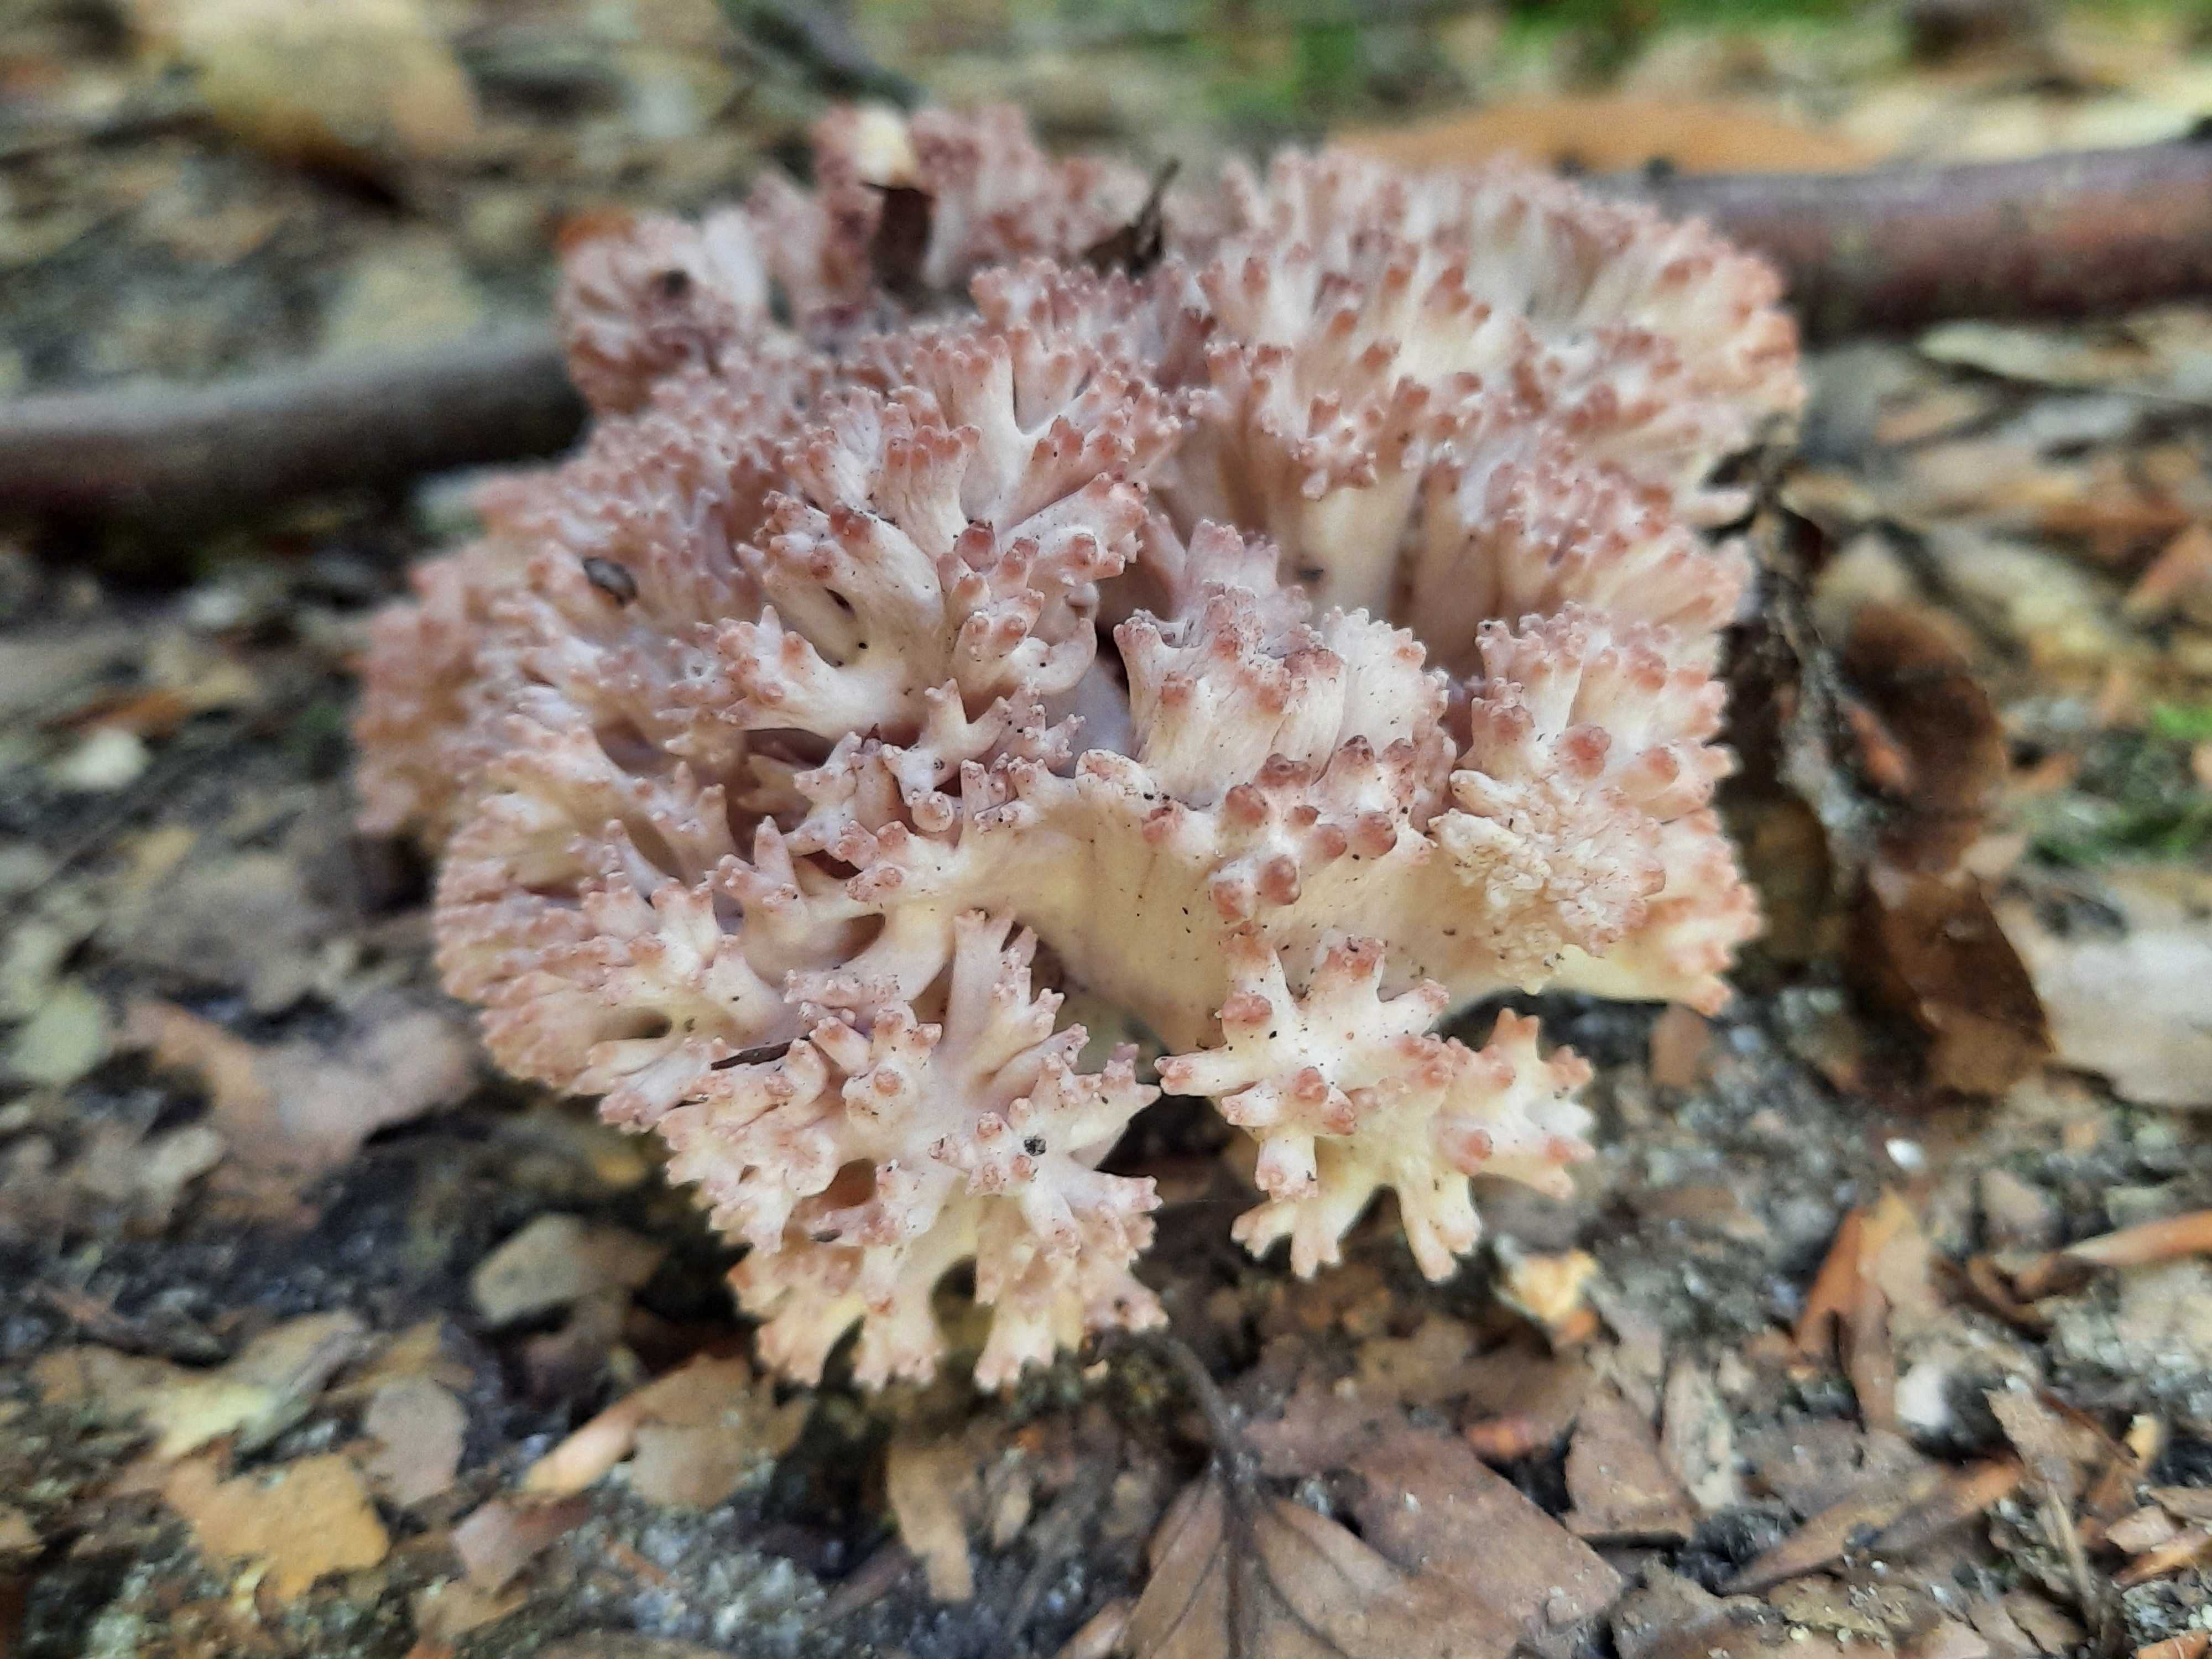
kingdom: Fungi
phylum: Basidiomycota
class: Agaricomycetes
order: Gomphales
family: Gomphaceae
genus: Ramaria
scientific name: Ramaria botrytis
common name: drue-koralsvamp
